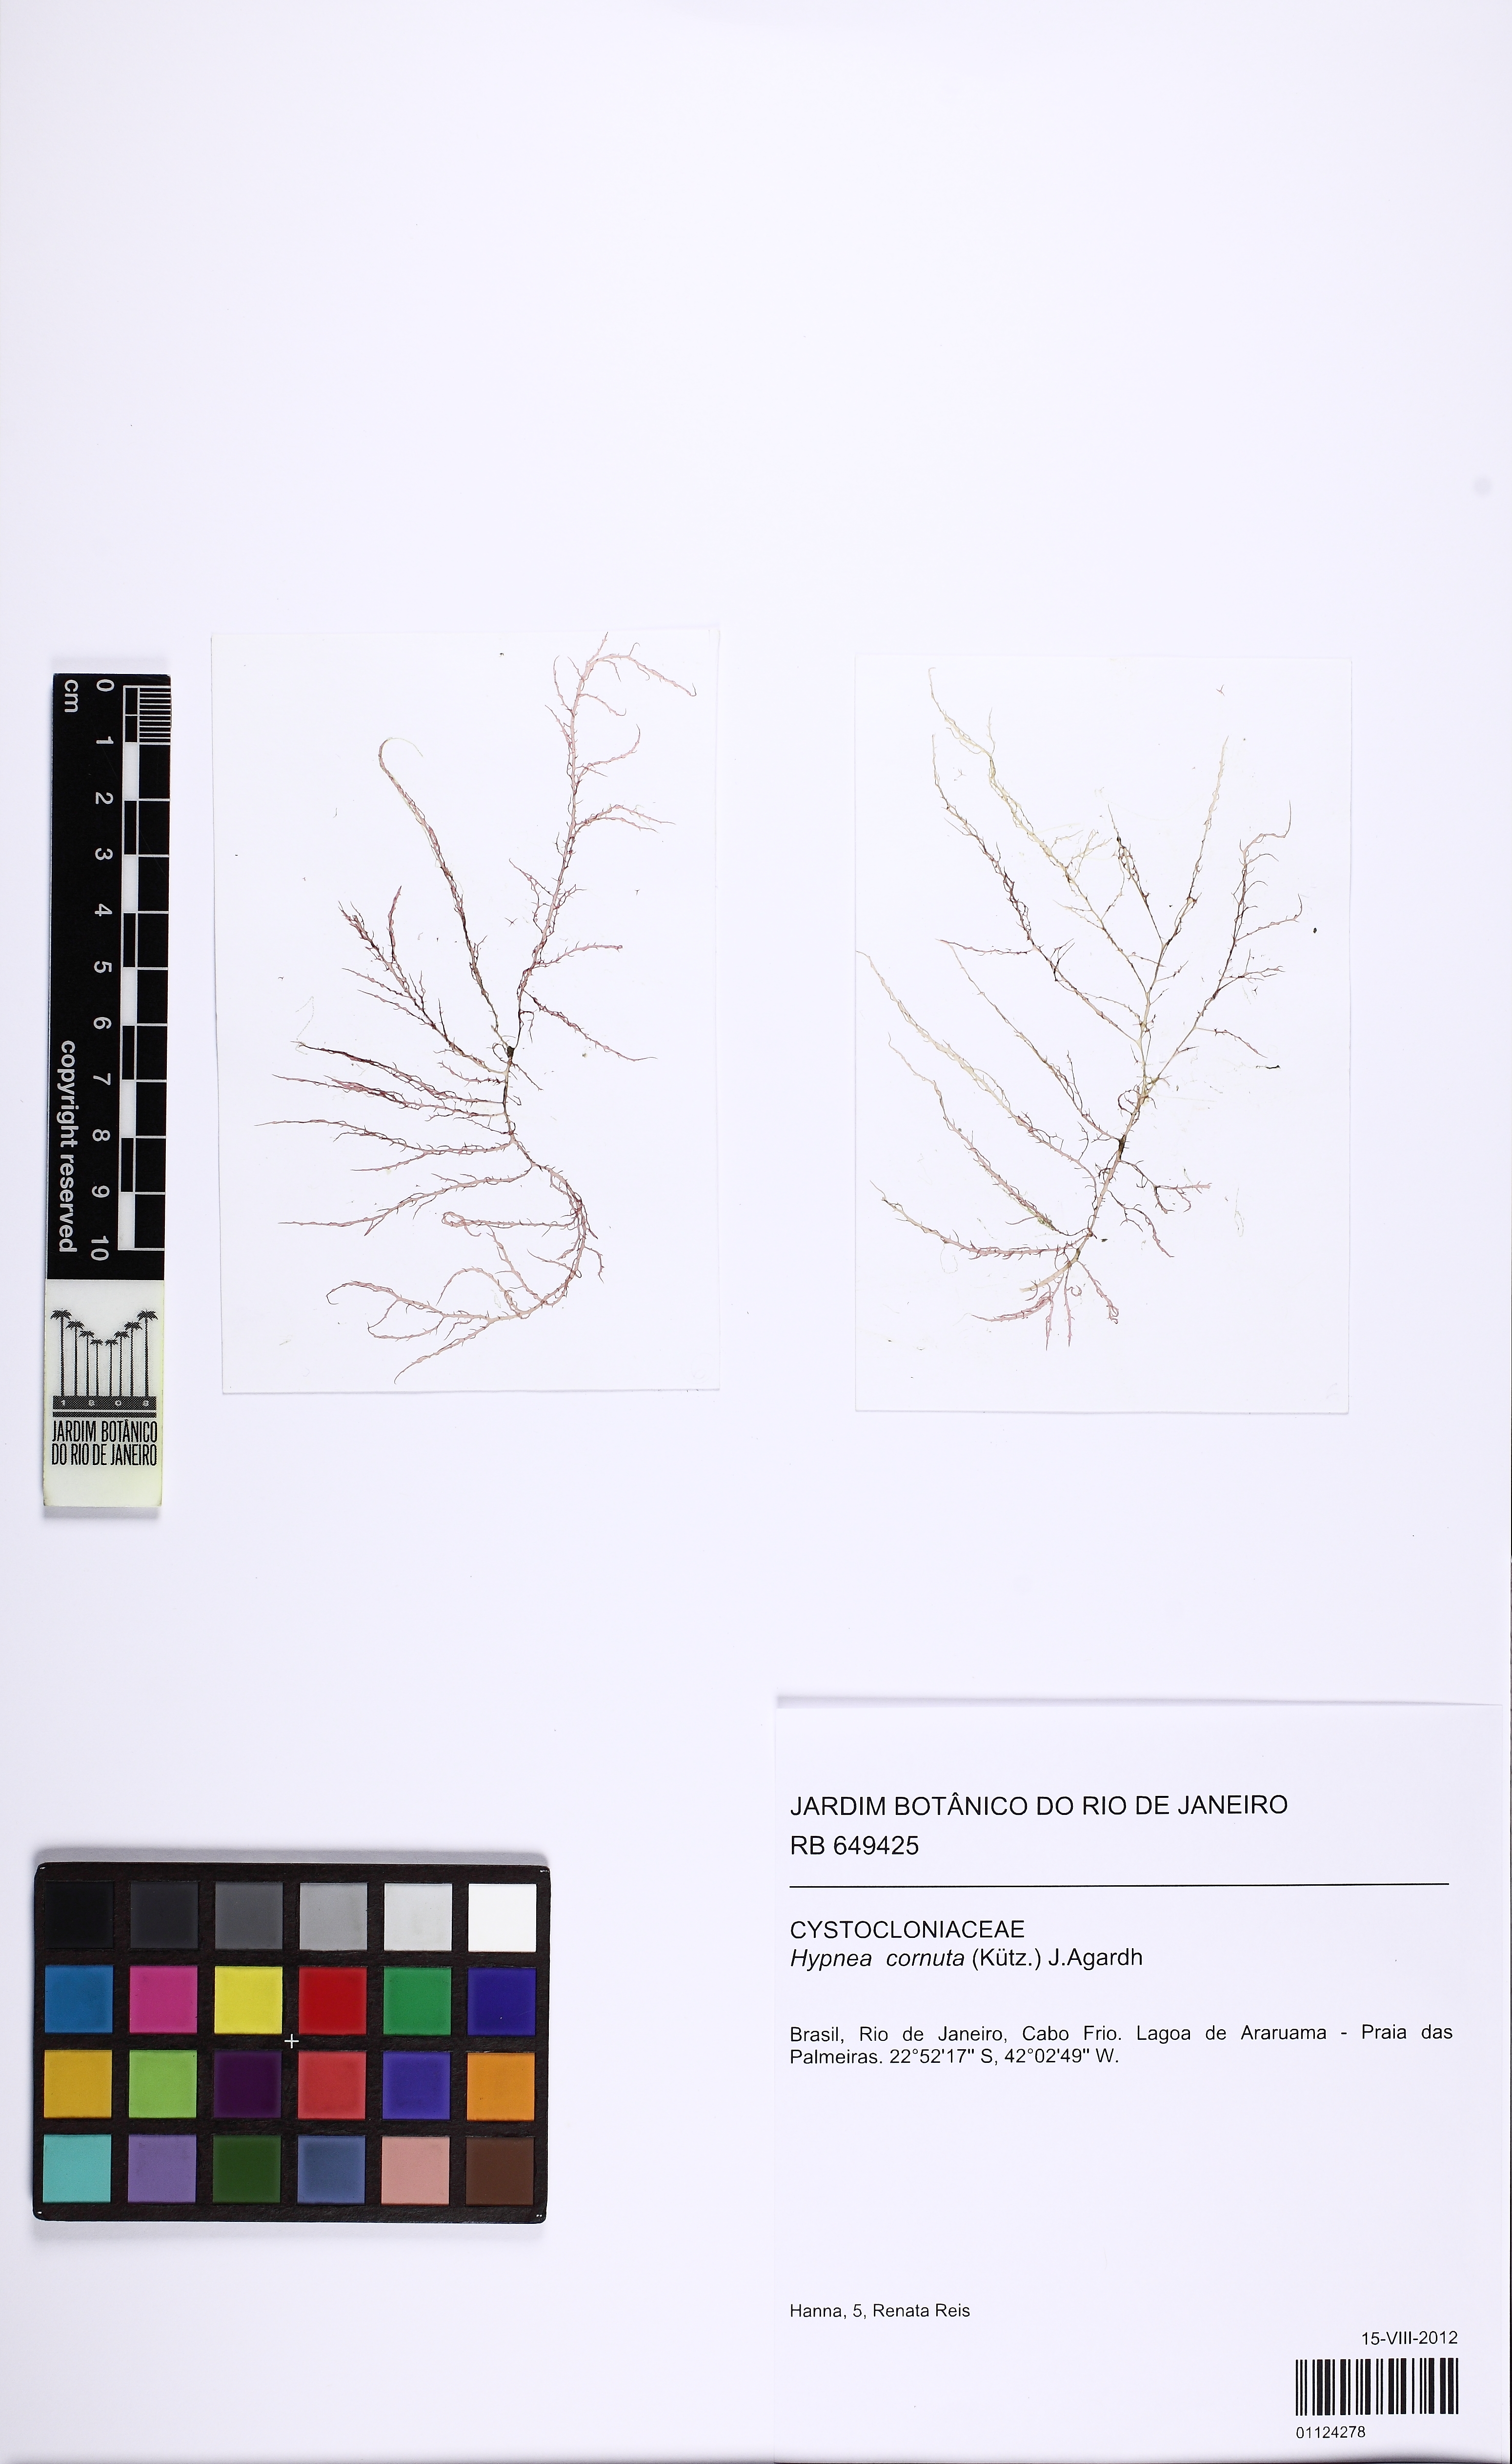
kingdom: Plantae
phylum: Rhodophyta
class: Florideophyceae
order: Gigartinales
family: Cystocloniaceae
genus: Hypnea
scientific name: Hypnea cornuta
